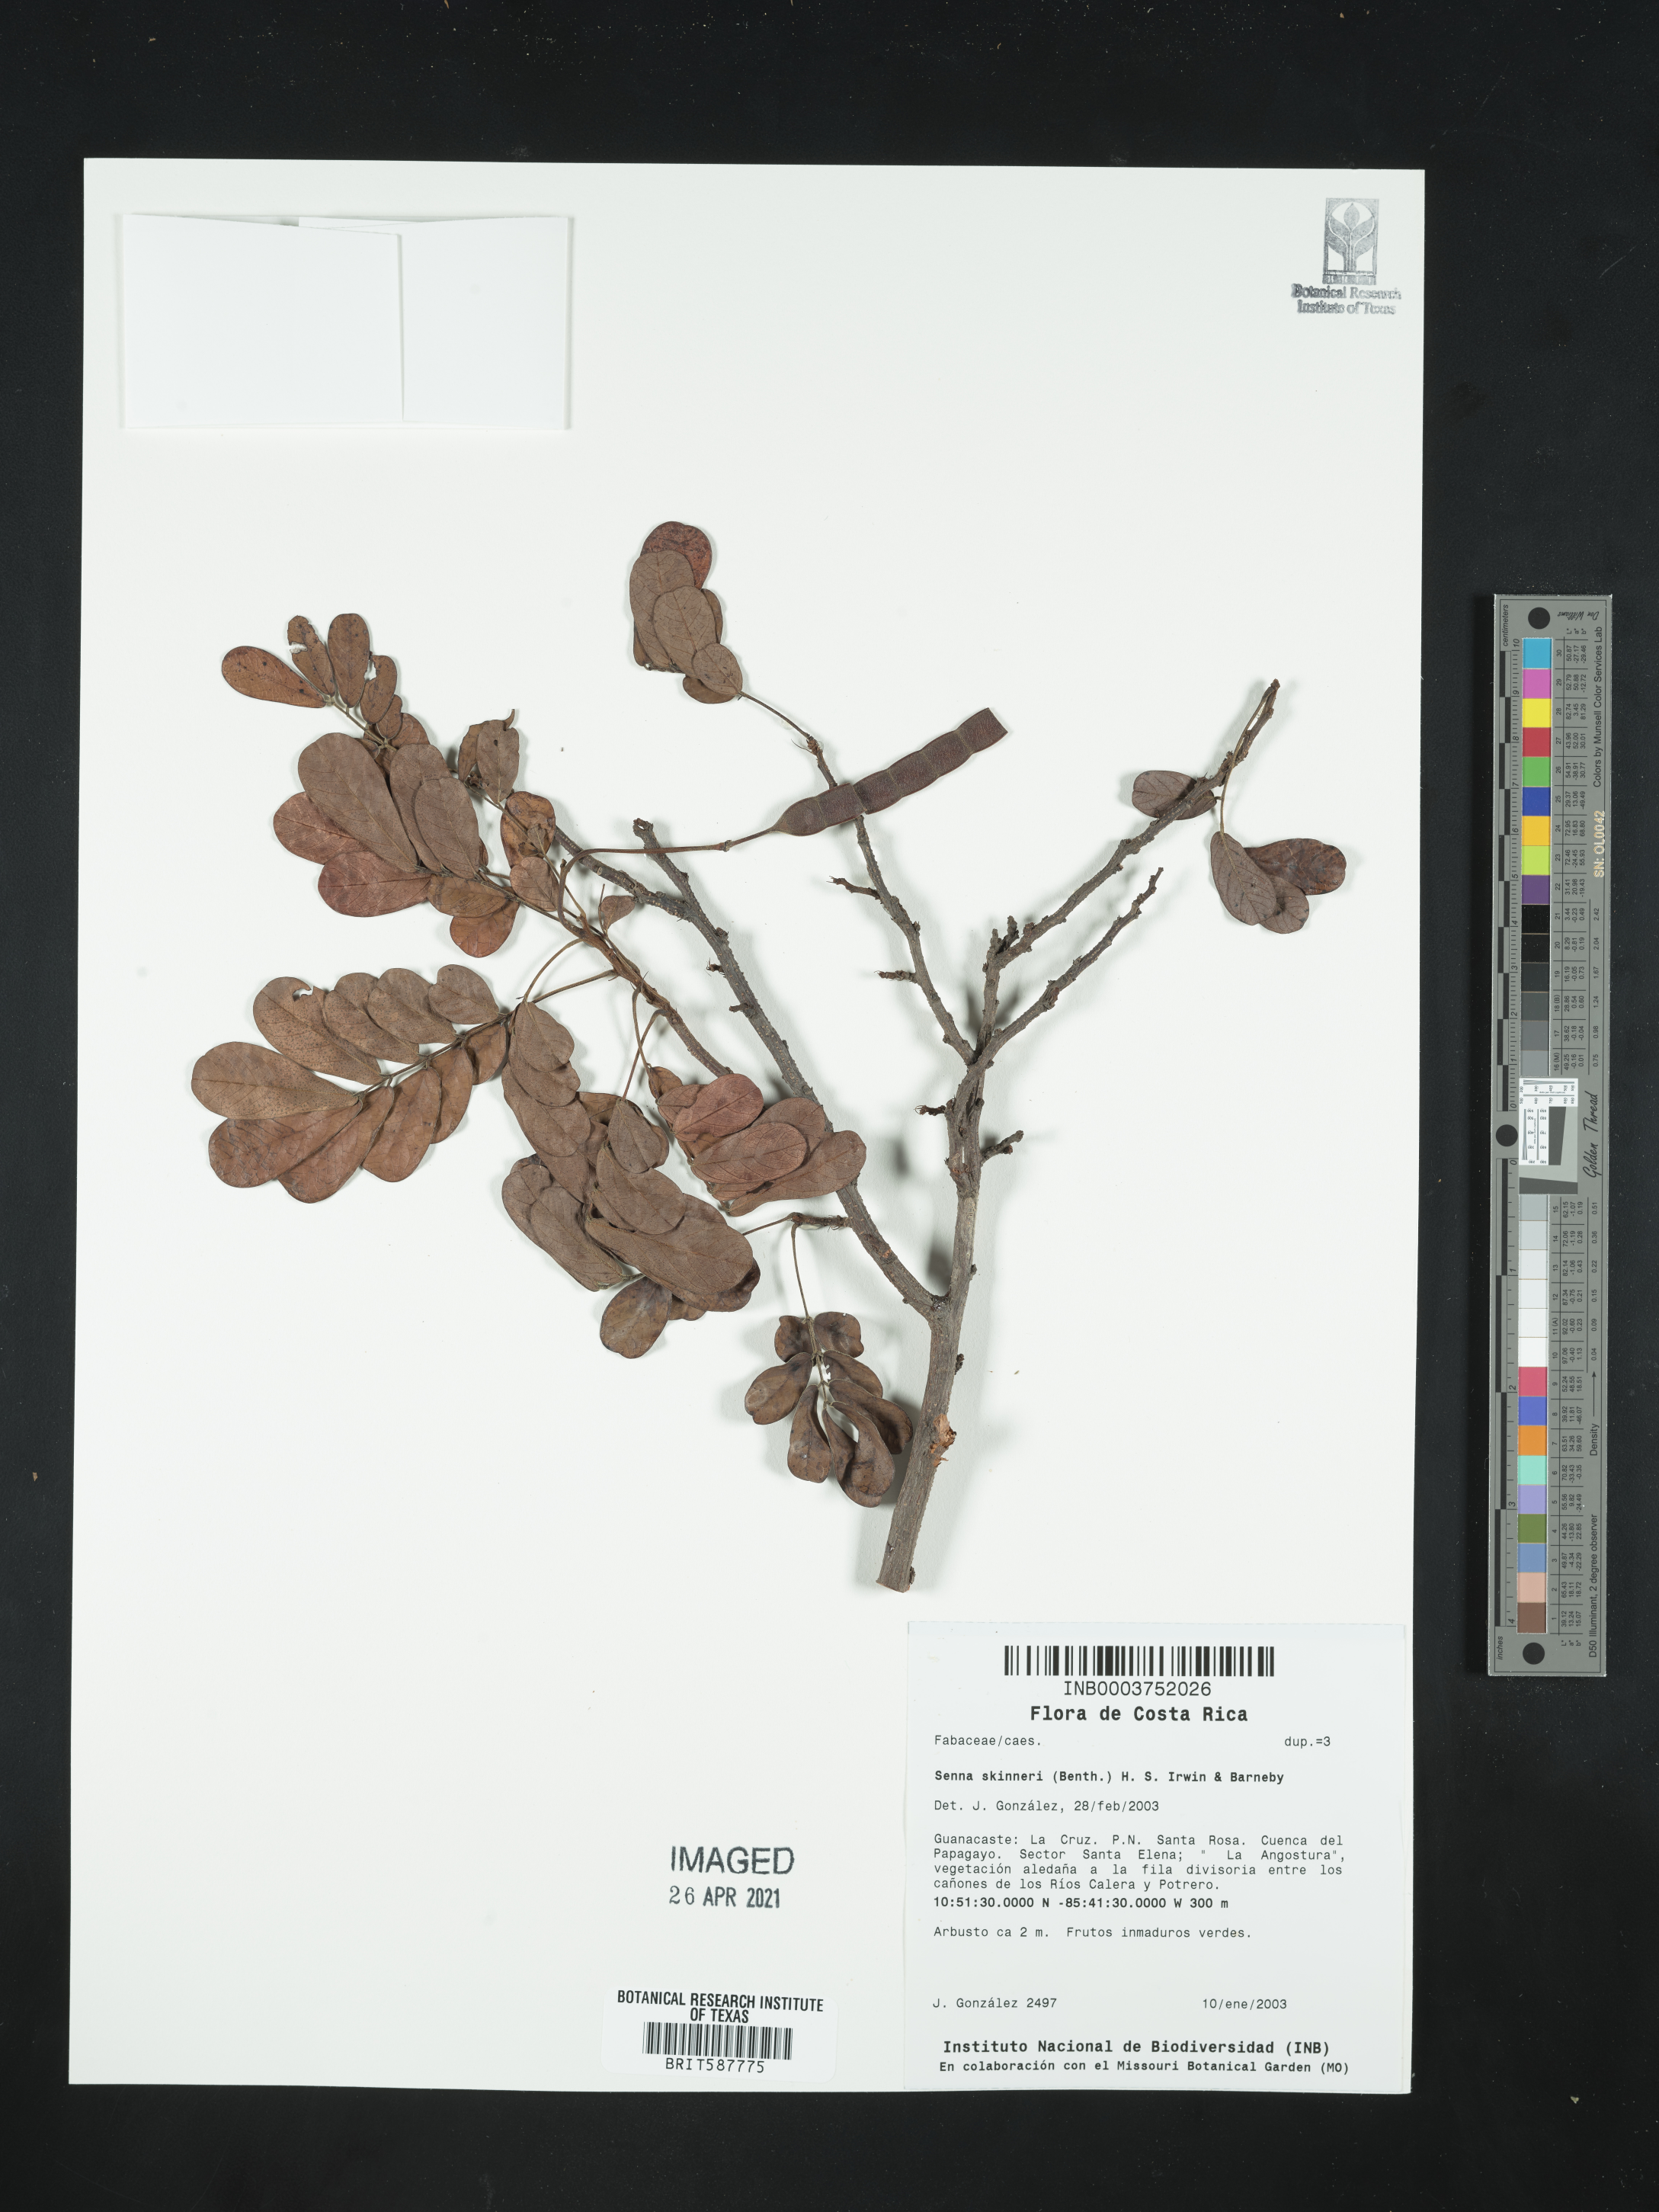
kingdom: Plantae
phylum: Tracheophyta
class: Magnoliopsida
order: Asterales
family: Asteraceae
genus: Antennaria
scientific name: Antennaria parlinii
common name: Parlin's pussytoes
